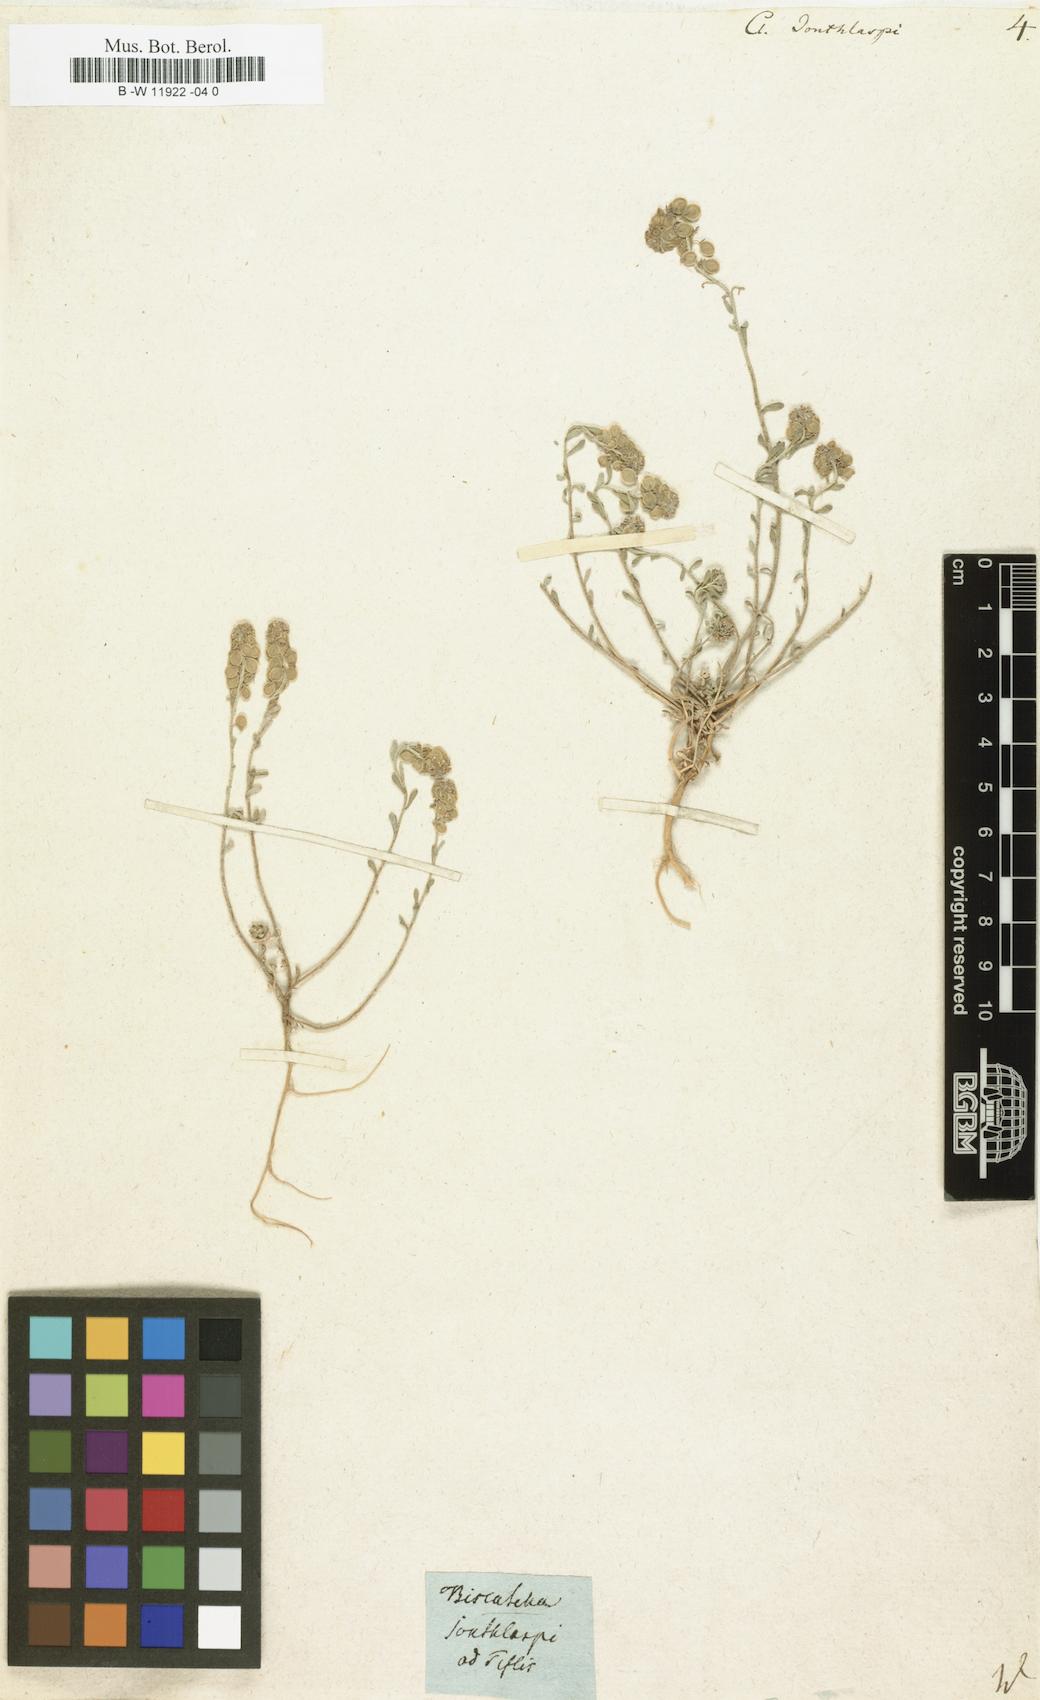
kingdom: Plantae
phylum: Tracheophyta
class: Magnoliopsida
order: Brassicales
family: Brassicaceae
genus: Clypeola
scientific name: Clypeola jonthlaspi
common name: Disk cress
